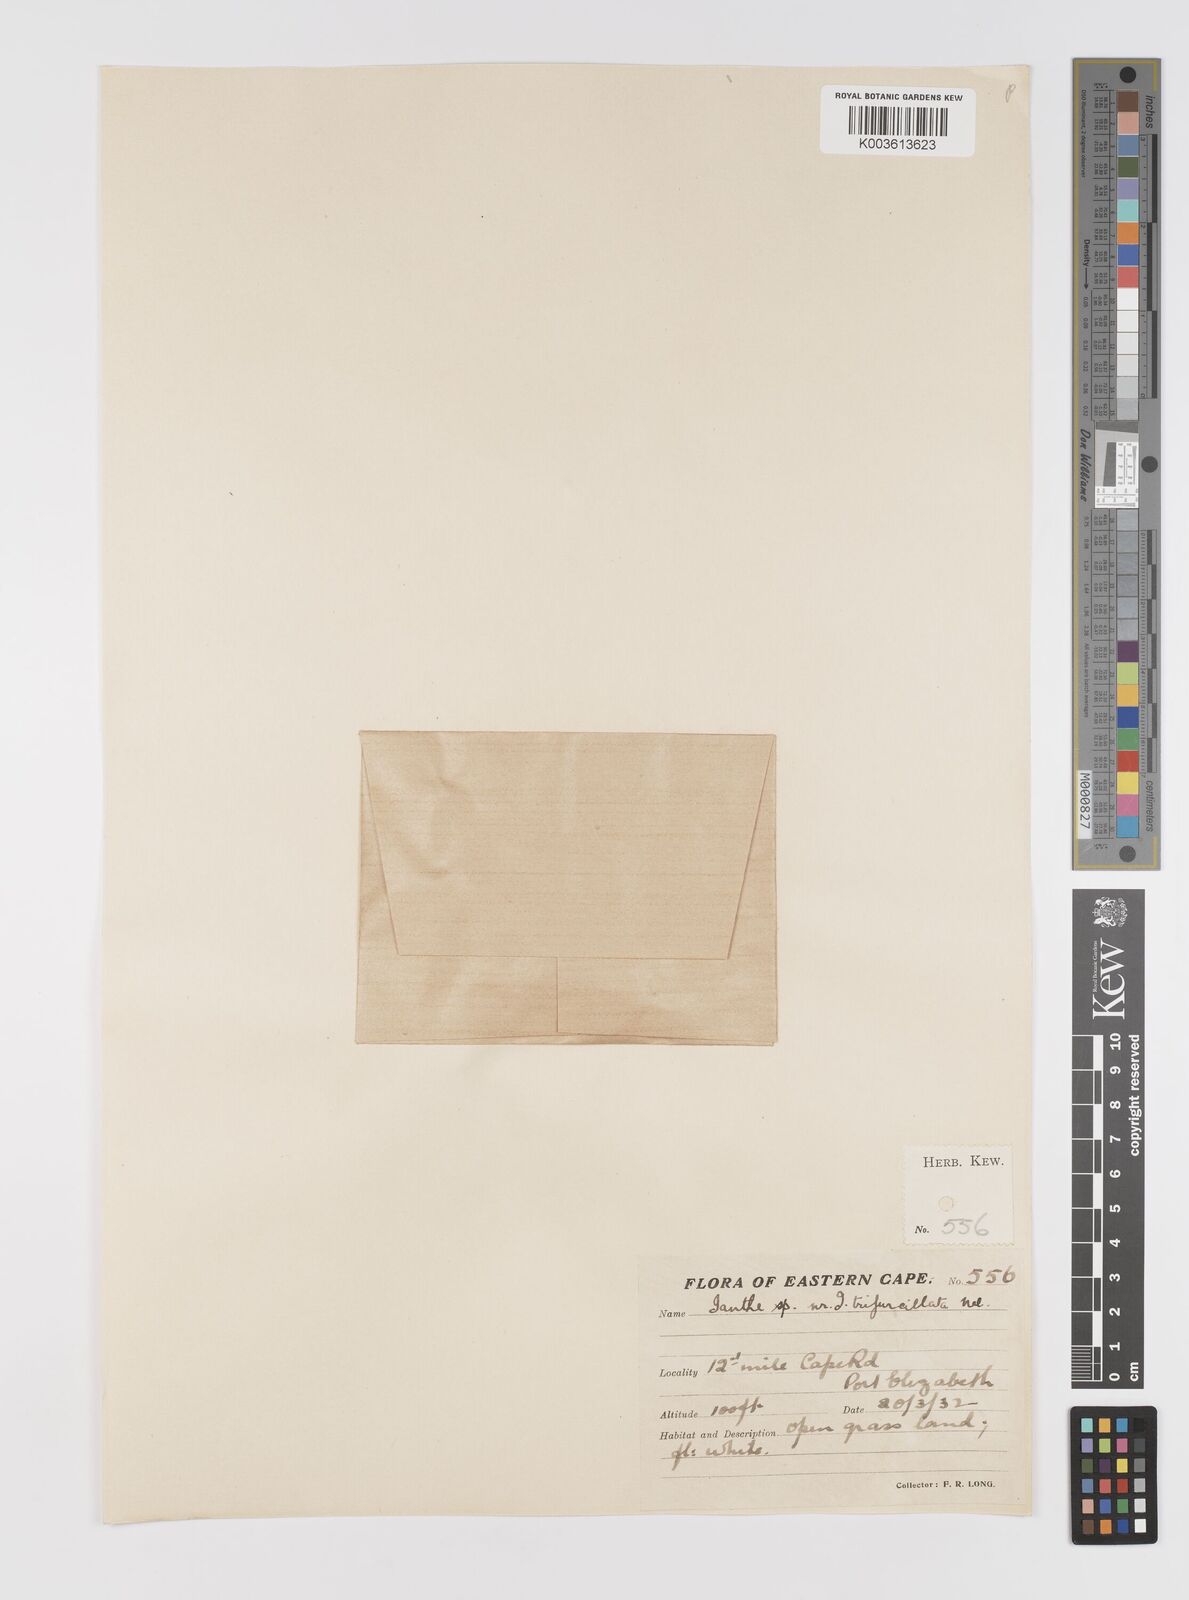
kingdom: Plantae
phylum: Tracheophyta
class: Liliopsida
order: Asparagales
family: Hypoxidaceae
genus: Pauridia
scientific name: Pauridia trifurcillata
